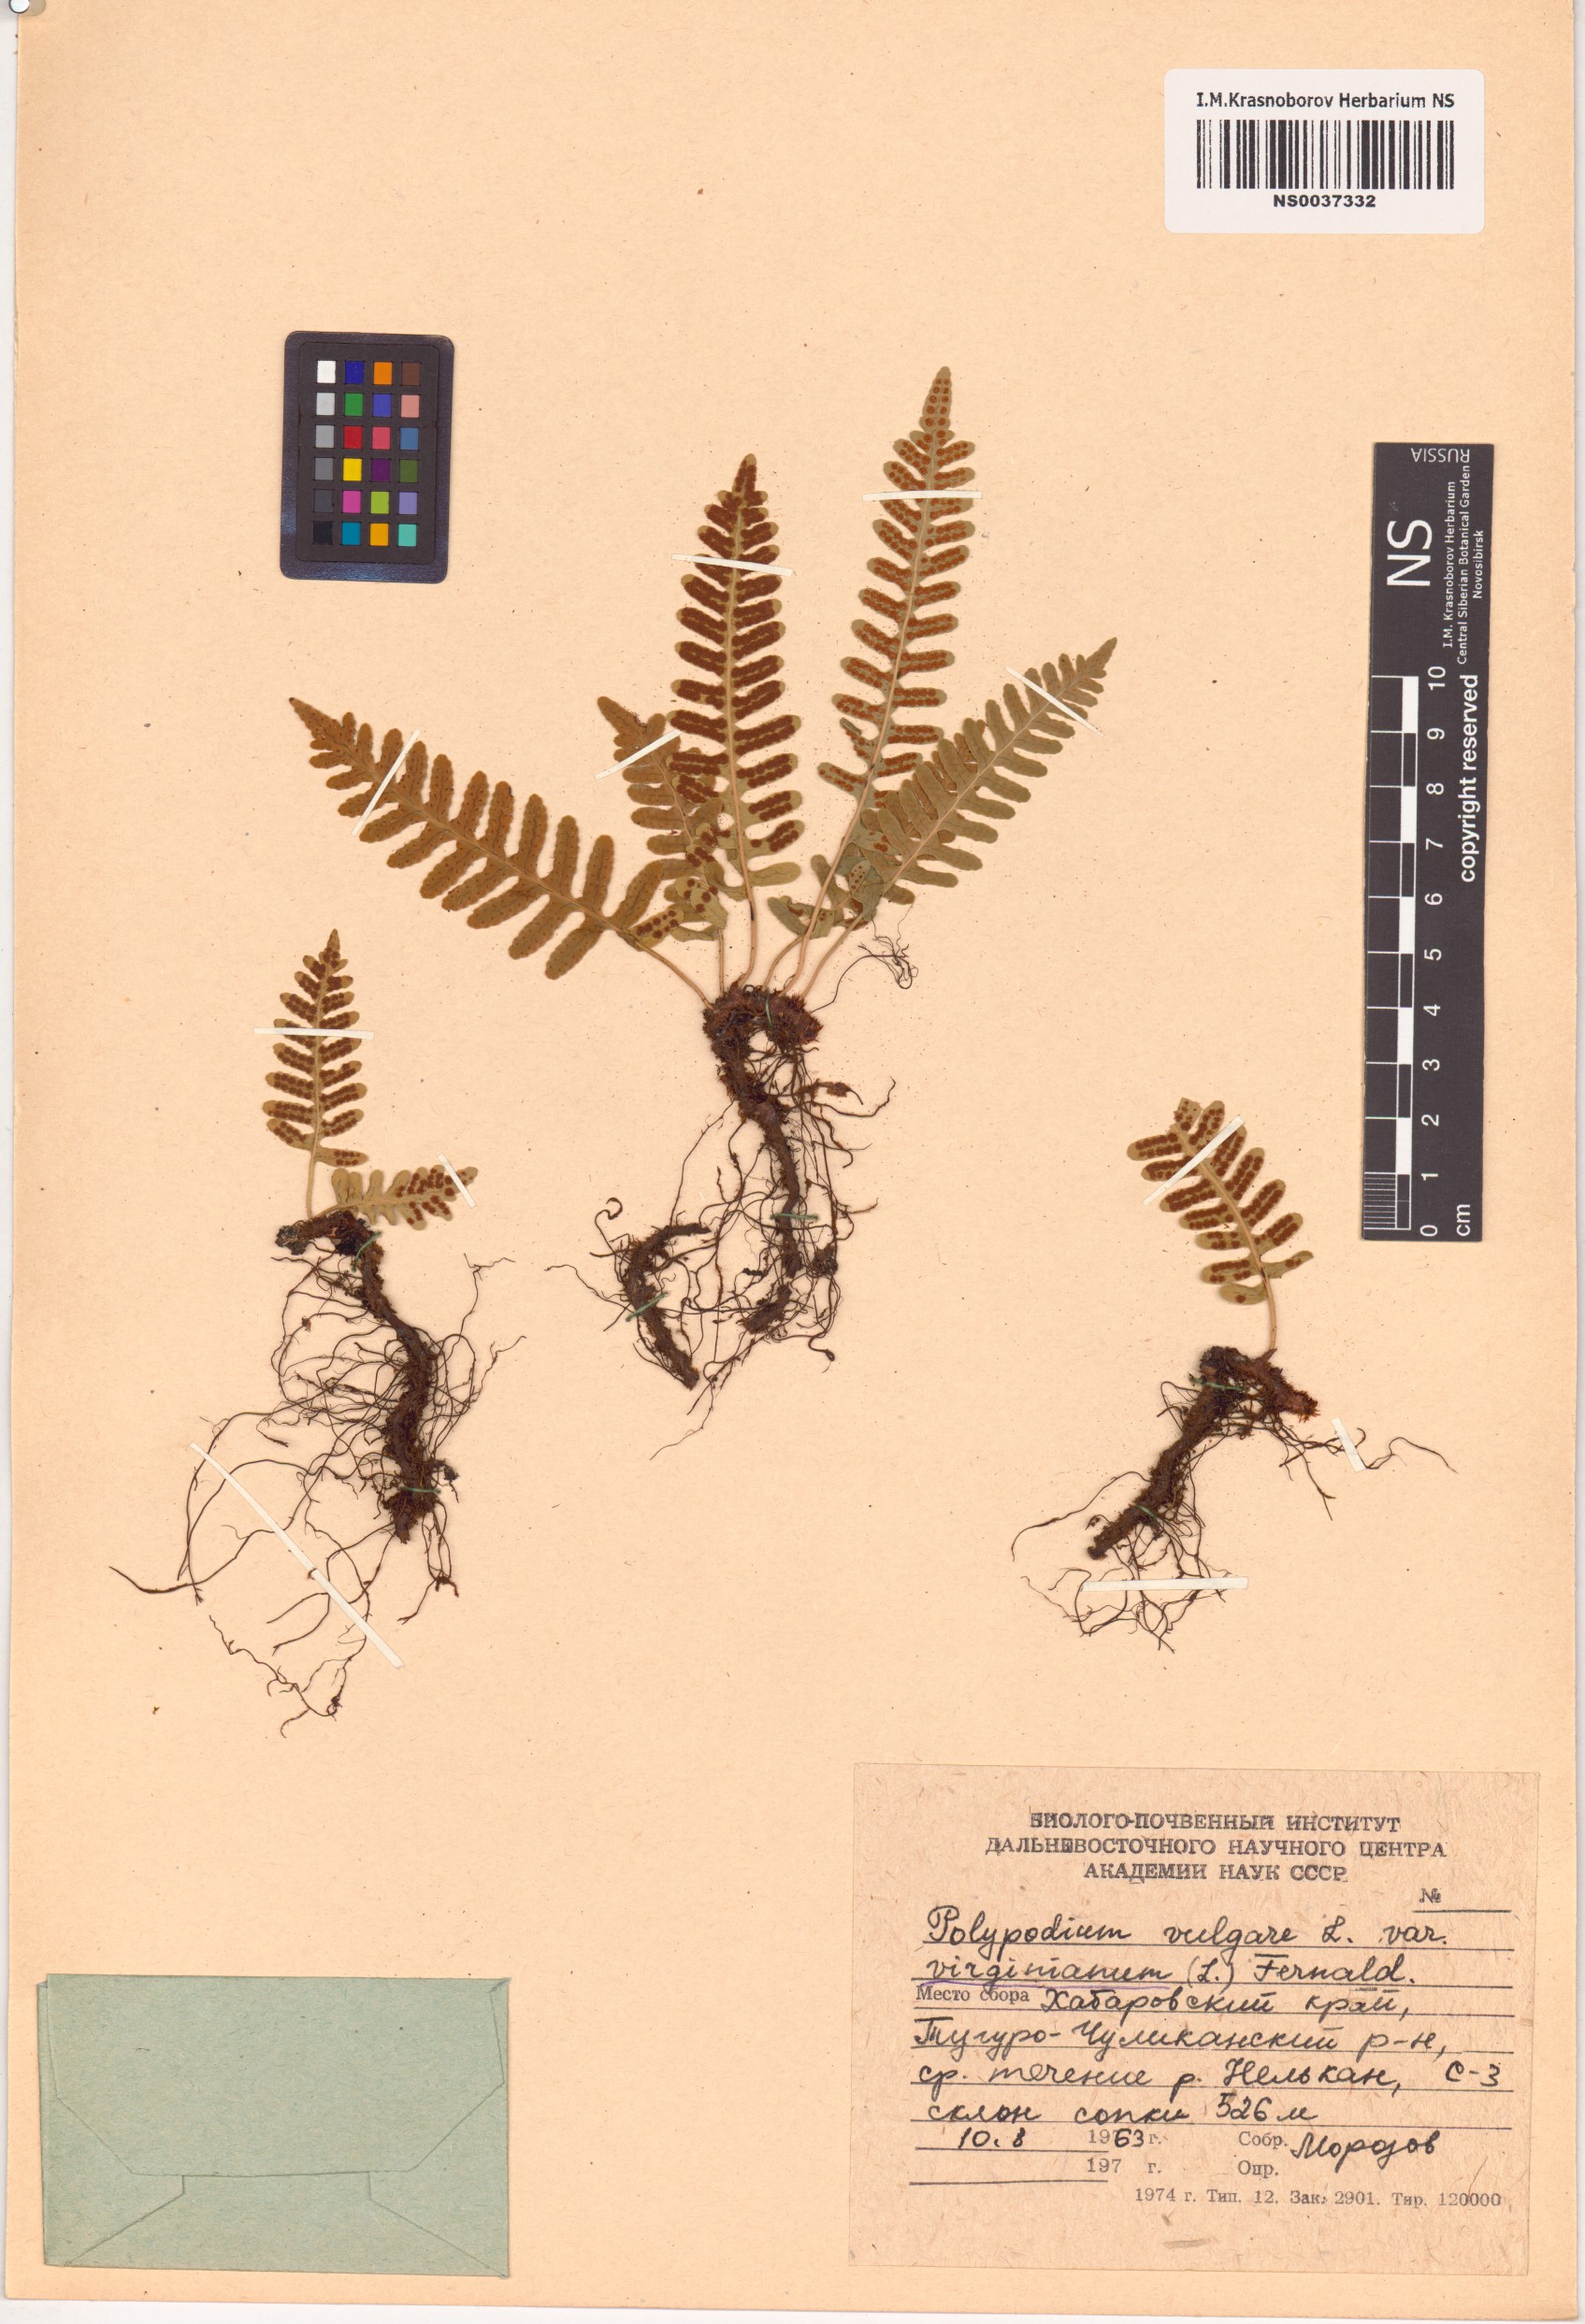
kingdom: Plantae
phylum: Tracheophyta
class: Polypodiopsida
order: Polypodiales
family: Polypodiaceae
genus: Polypodium
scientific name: Polypodium virginianum
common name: American wall fern
